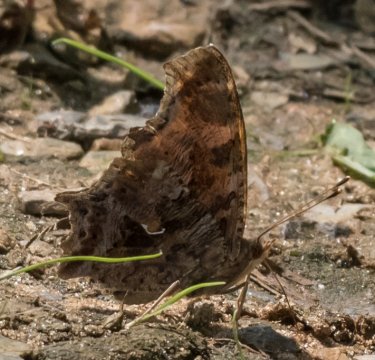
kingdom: Animalia
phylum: Arthropoda
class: Insecta
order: Lepidoptera
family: Nymphalidae
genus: Polygonia
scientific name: Polygonia comma
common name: Eastern Comma
